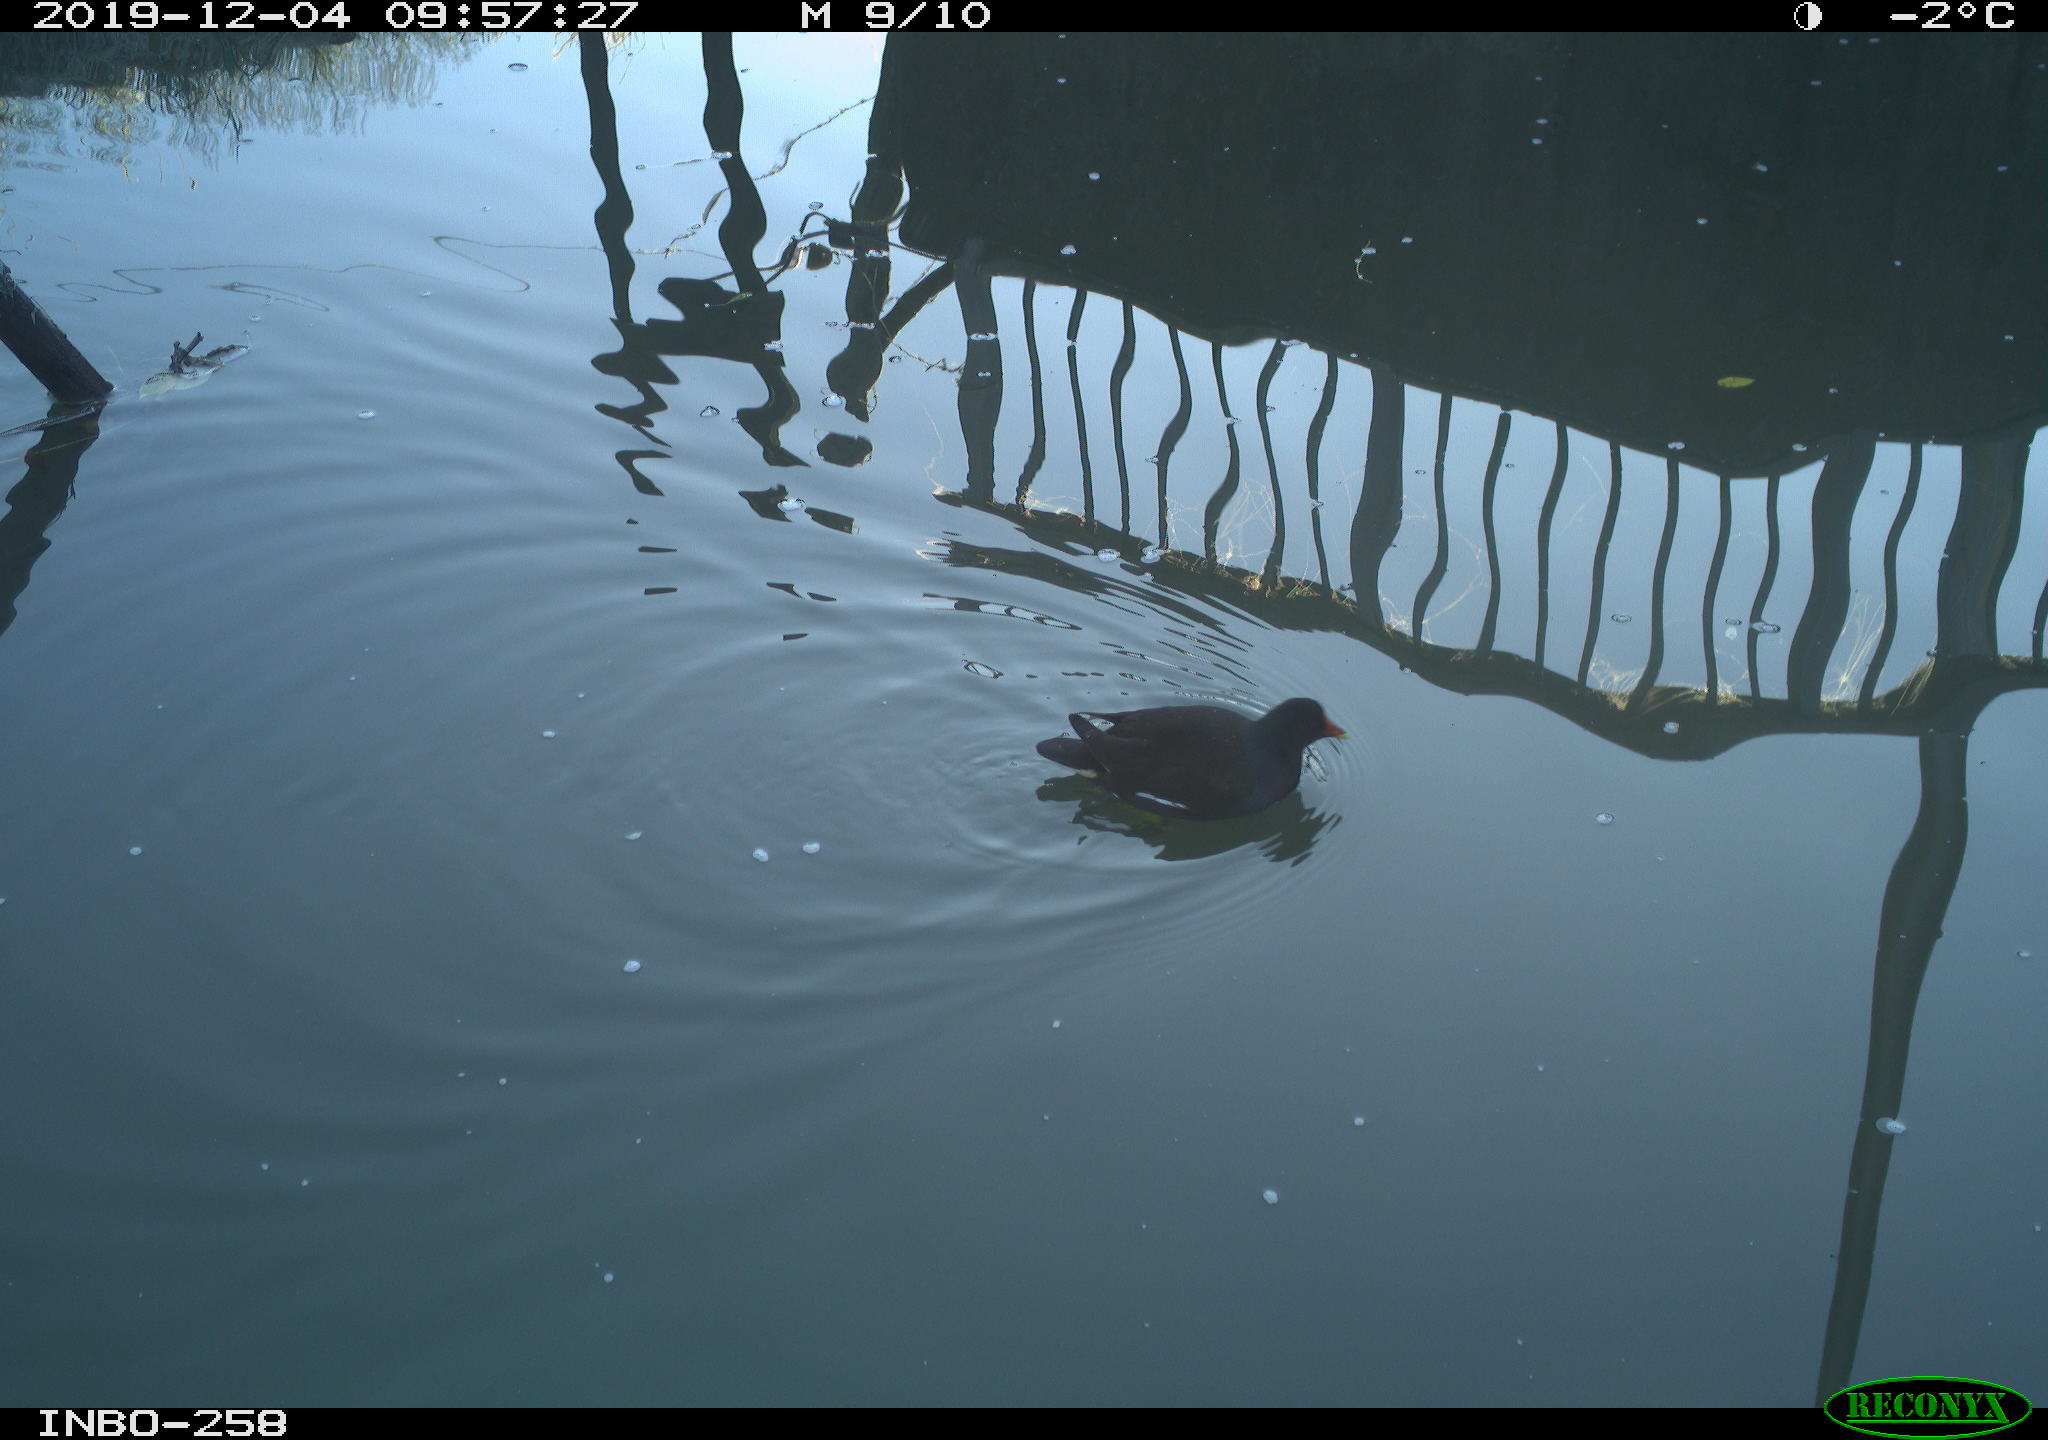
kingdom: Animalia
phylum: Chordata
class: Aves
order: Gruiformes
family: Rallidae
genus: Gallinula
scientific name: Gallinula chloropus
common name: Common moorhen
